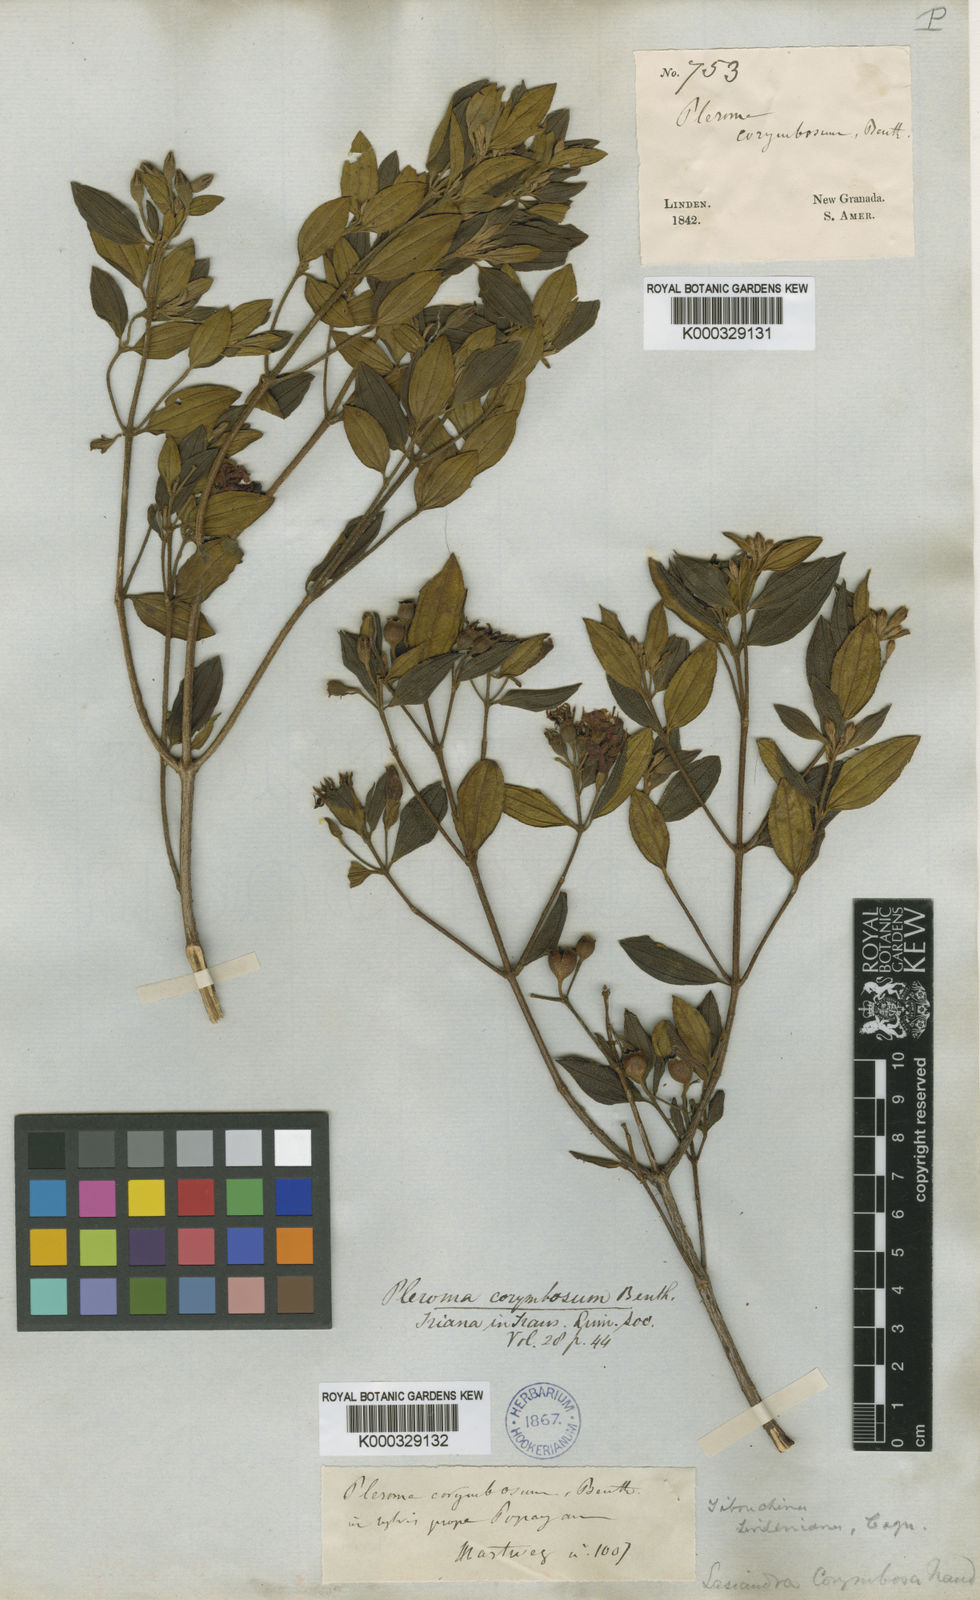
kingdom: Plantae
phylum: Tracheophyta
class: Magnoliopsida
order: Myrtales
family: Melastomataceae
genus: Pleroma
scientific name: Pleroma martiale
